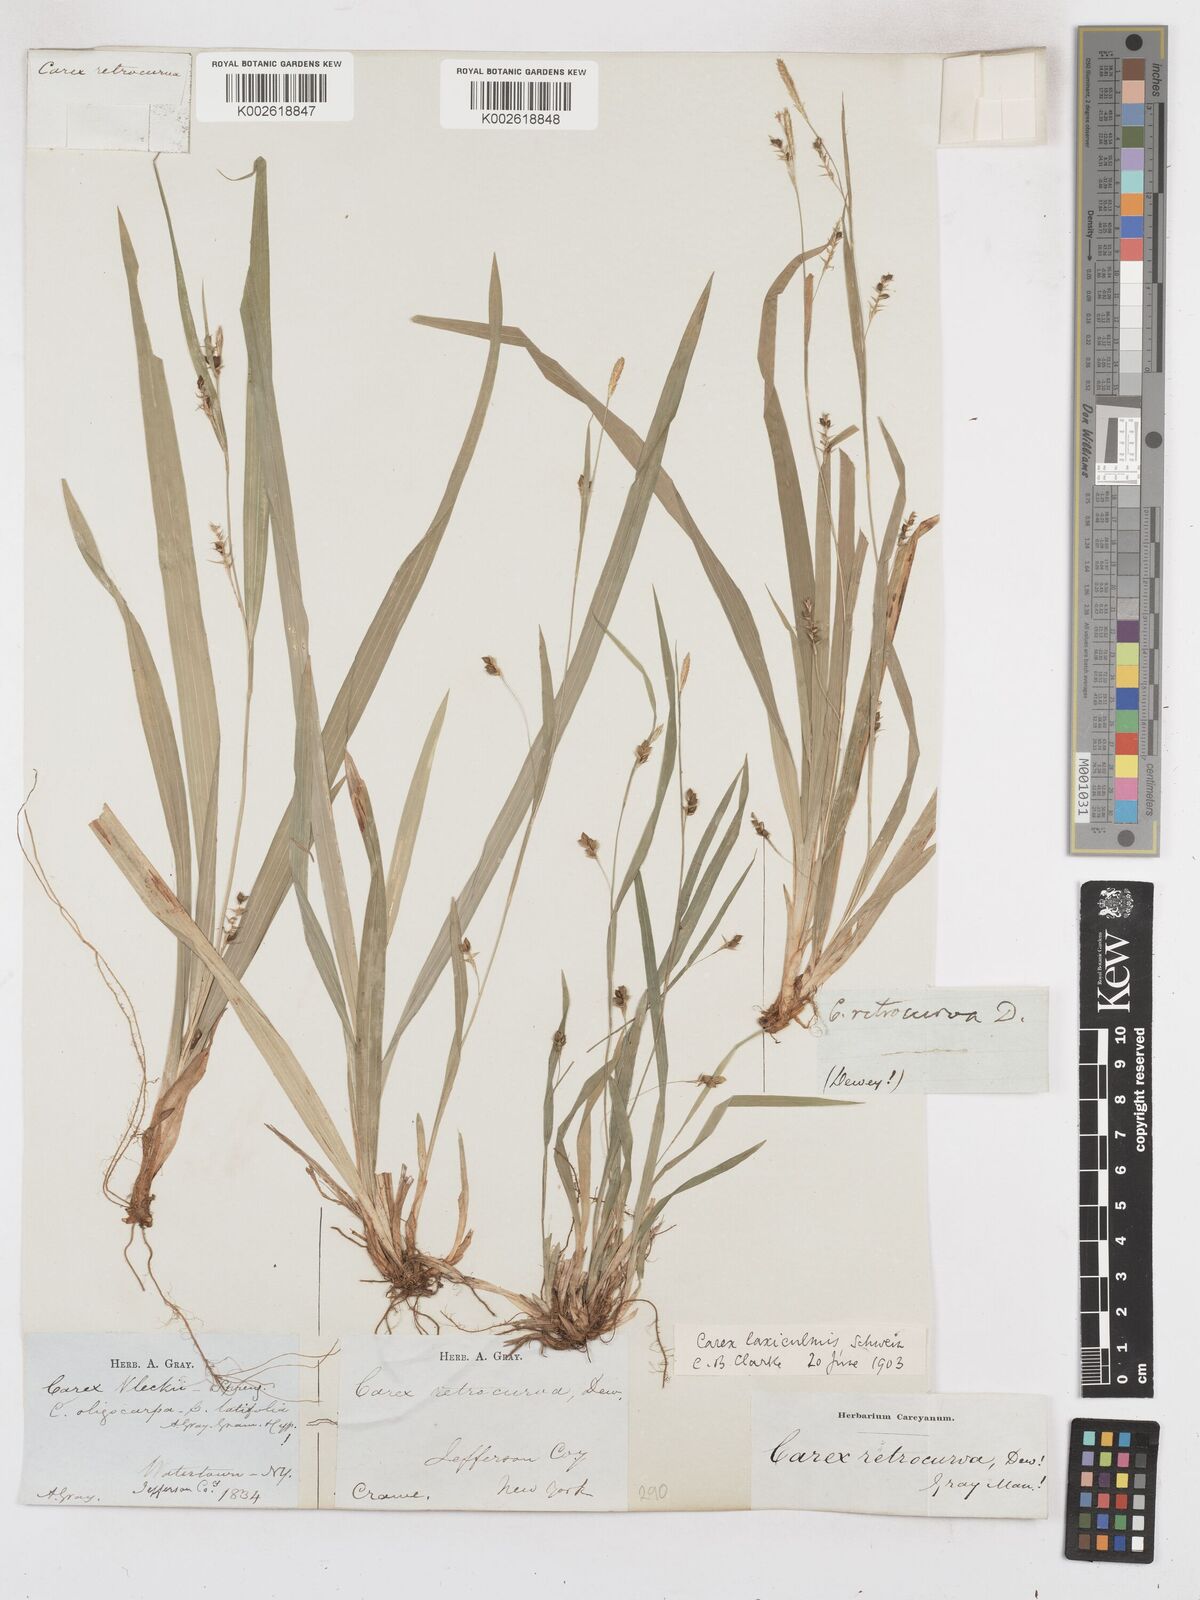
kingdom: Plantae
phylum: Tracheophyta
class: Liliopsida
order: Poales
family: Cyperaceae
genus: Carex
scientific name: Carex laxiculmis
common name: Spreading sedge
